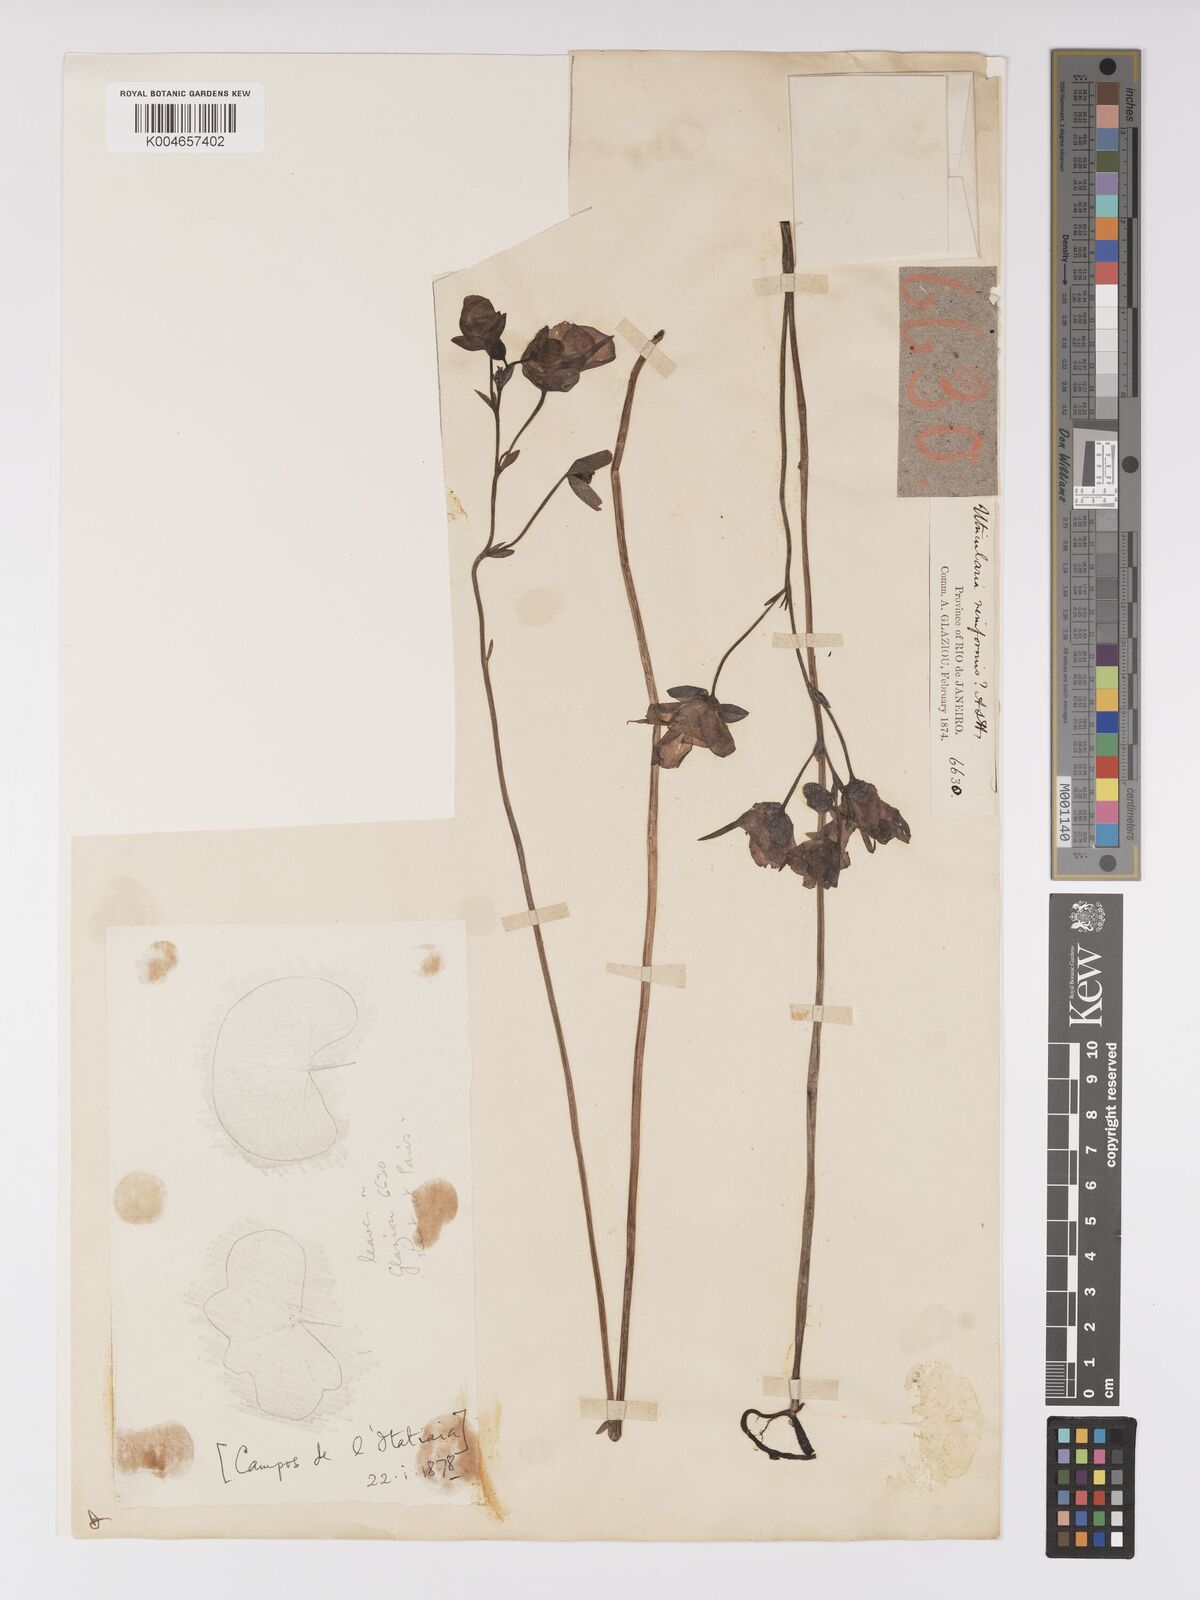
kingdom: Plantae
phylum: Tracheophyta
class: Magnoliopsida
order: Lamiales
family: Lentibulariaceae
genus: Utricularia
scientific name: Utricularia reniformis
